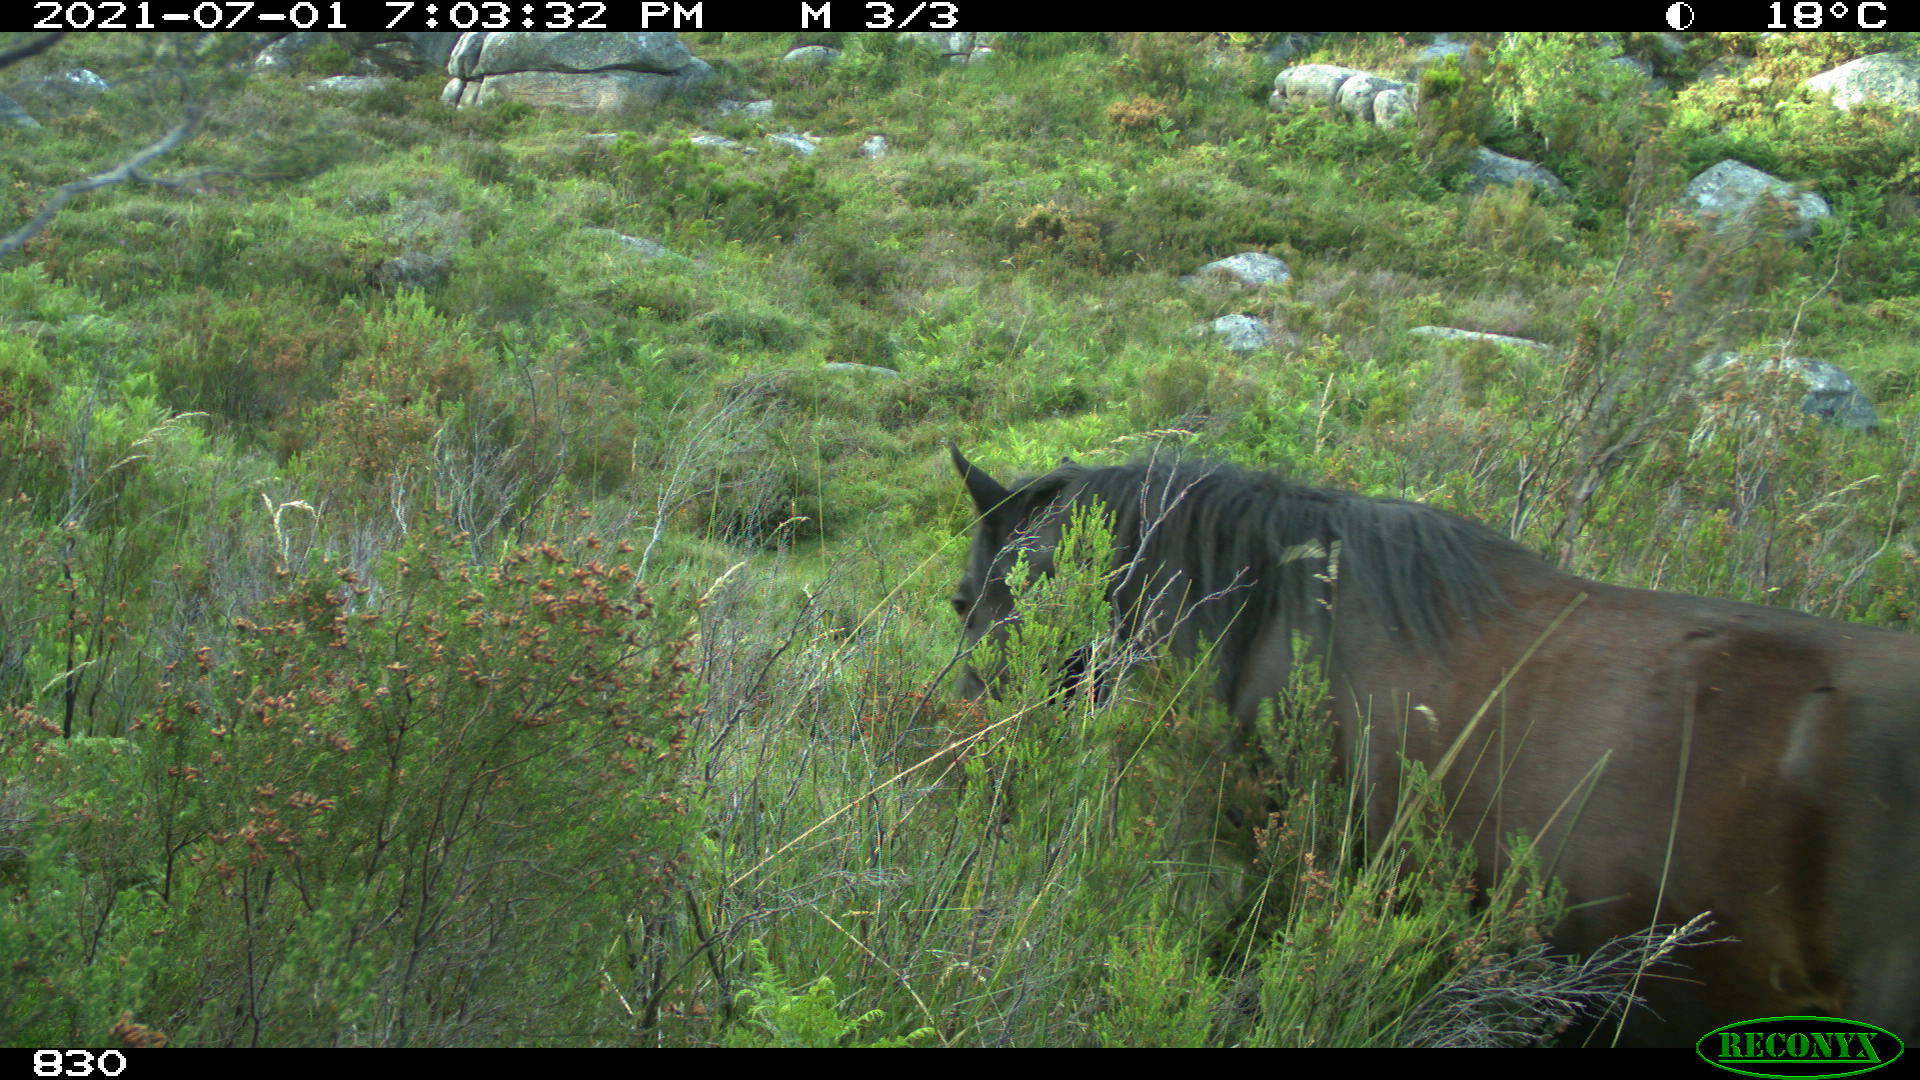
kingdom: Animalia
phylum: Chordata
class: Mammalia
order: Perissodactyla
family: Equidae
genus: Equus
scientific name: Equus caballus
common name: Horse
